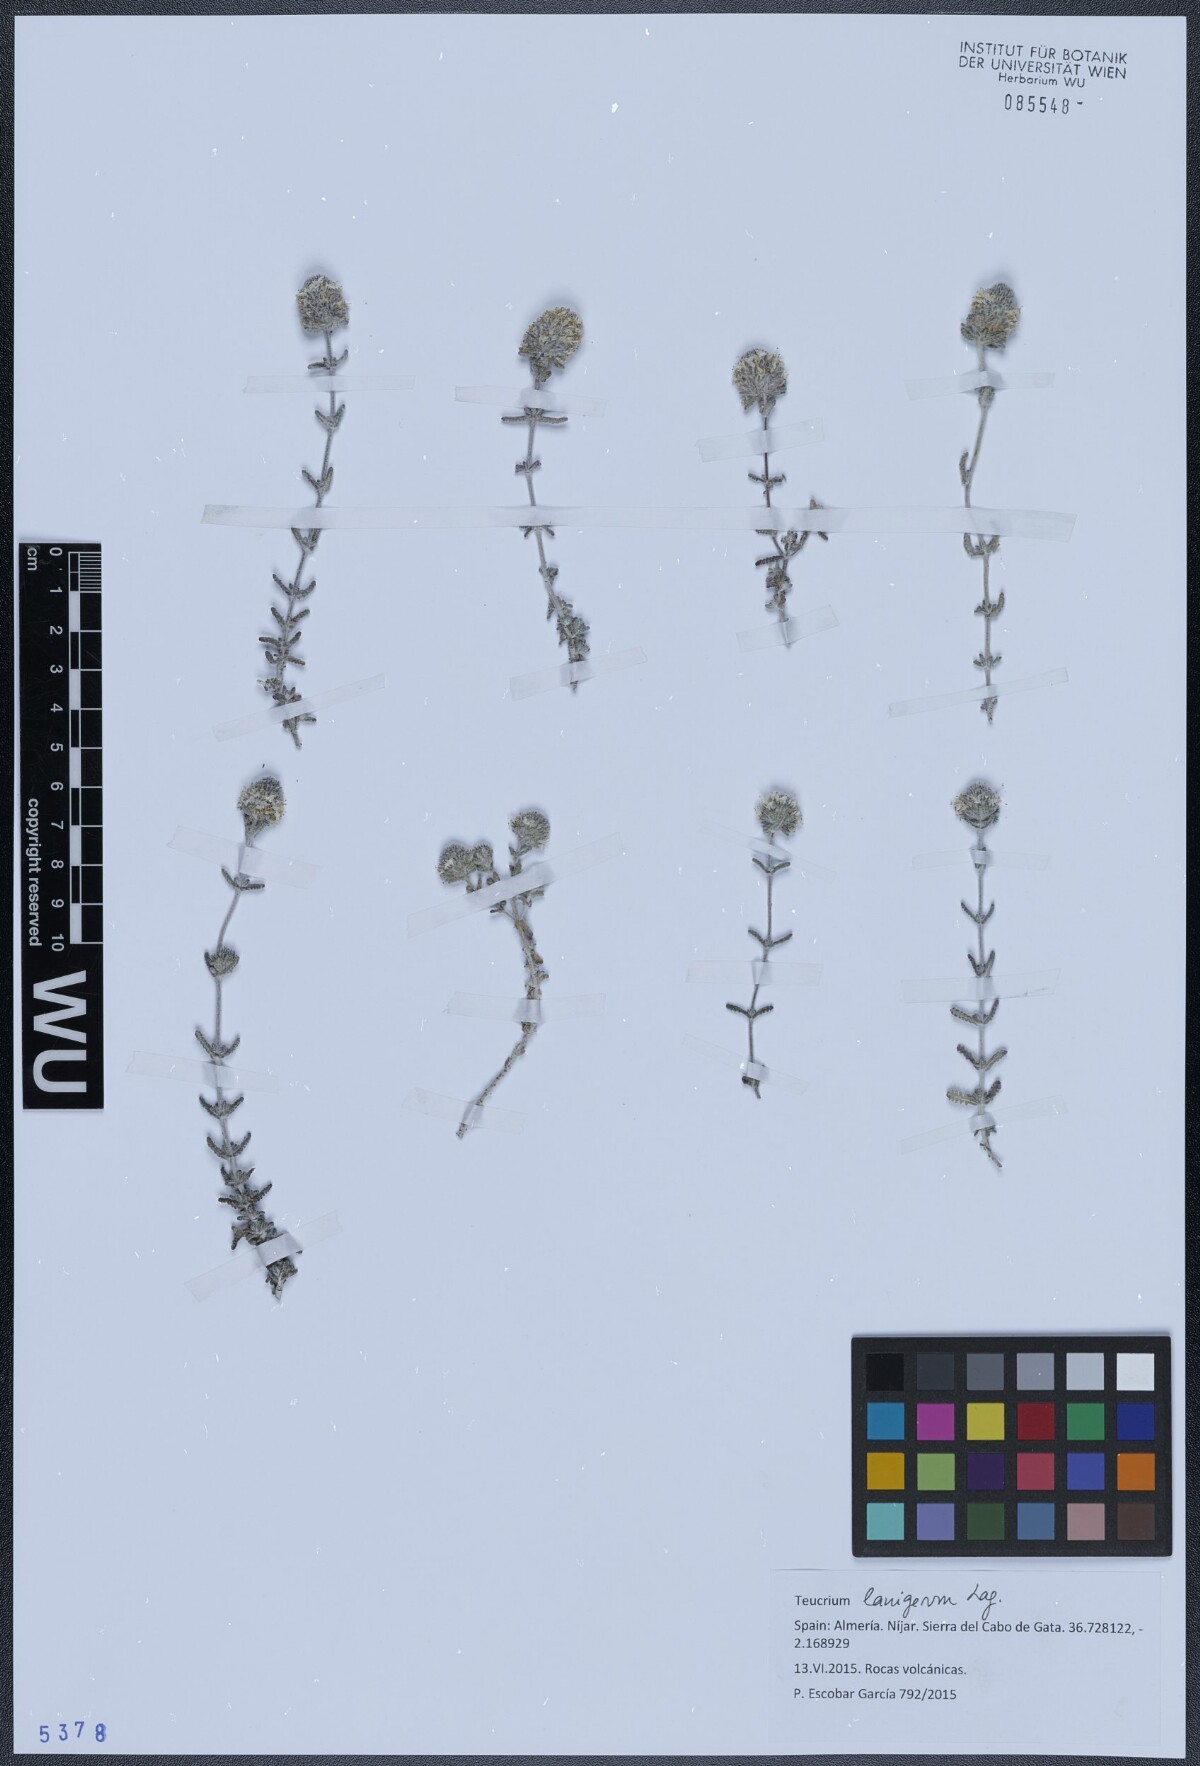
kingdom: Plantae
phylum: Tracheophyta
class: Magnoliopsida
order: Lamiales
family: Lamiaceae
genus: Teucrium
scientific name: Teucrium lanigerum
